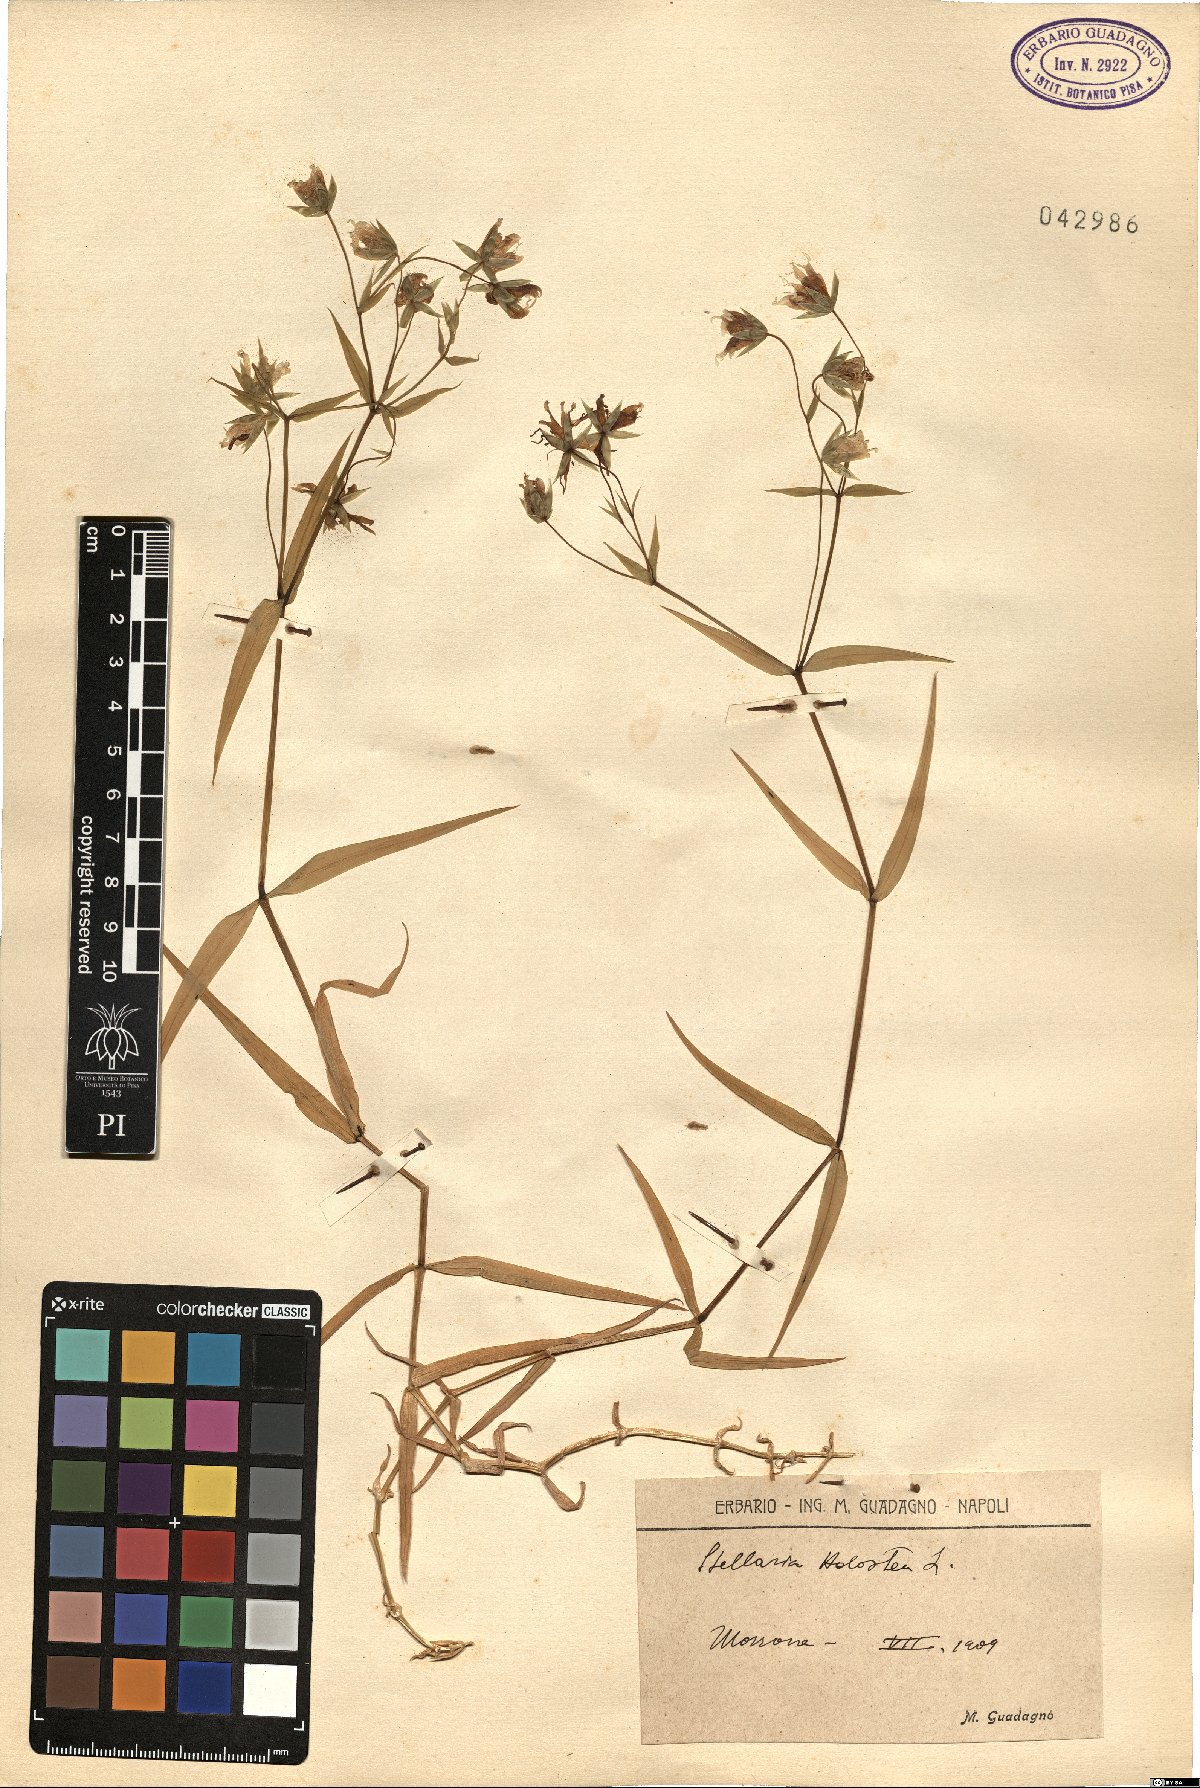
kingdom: Plantae
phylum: Tracheophyta
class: Magnoliopsida
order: Caryophyllales
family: Caryophyllaceae
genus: Rabelera
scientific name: Rabelera holostea
